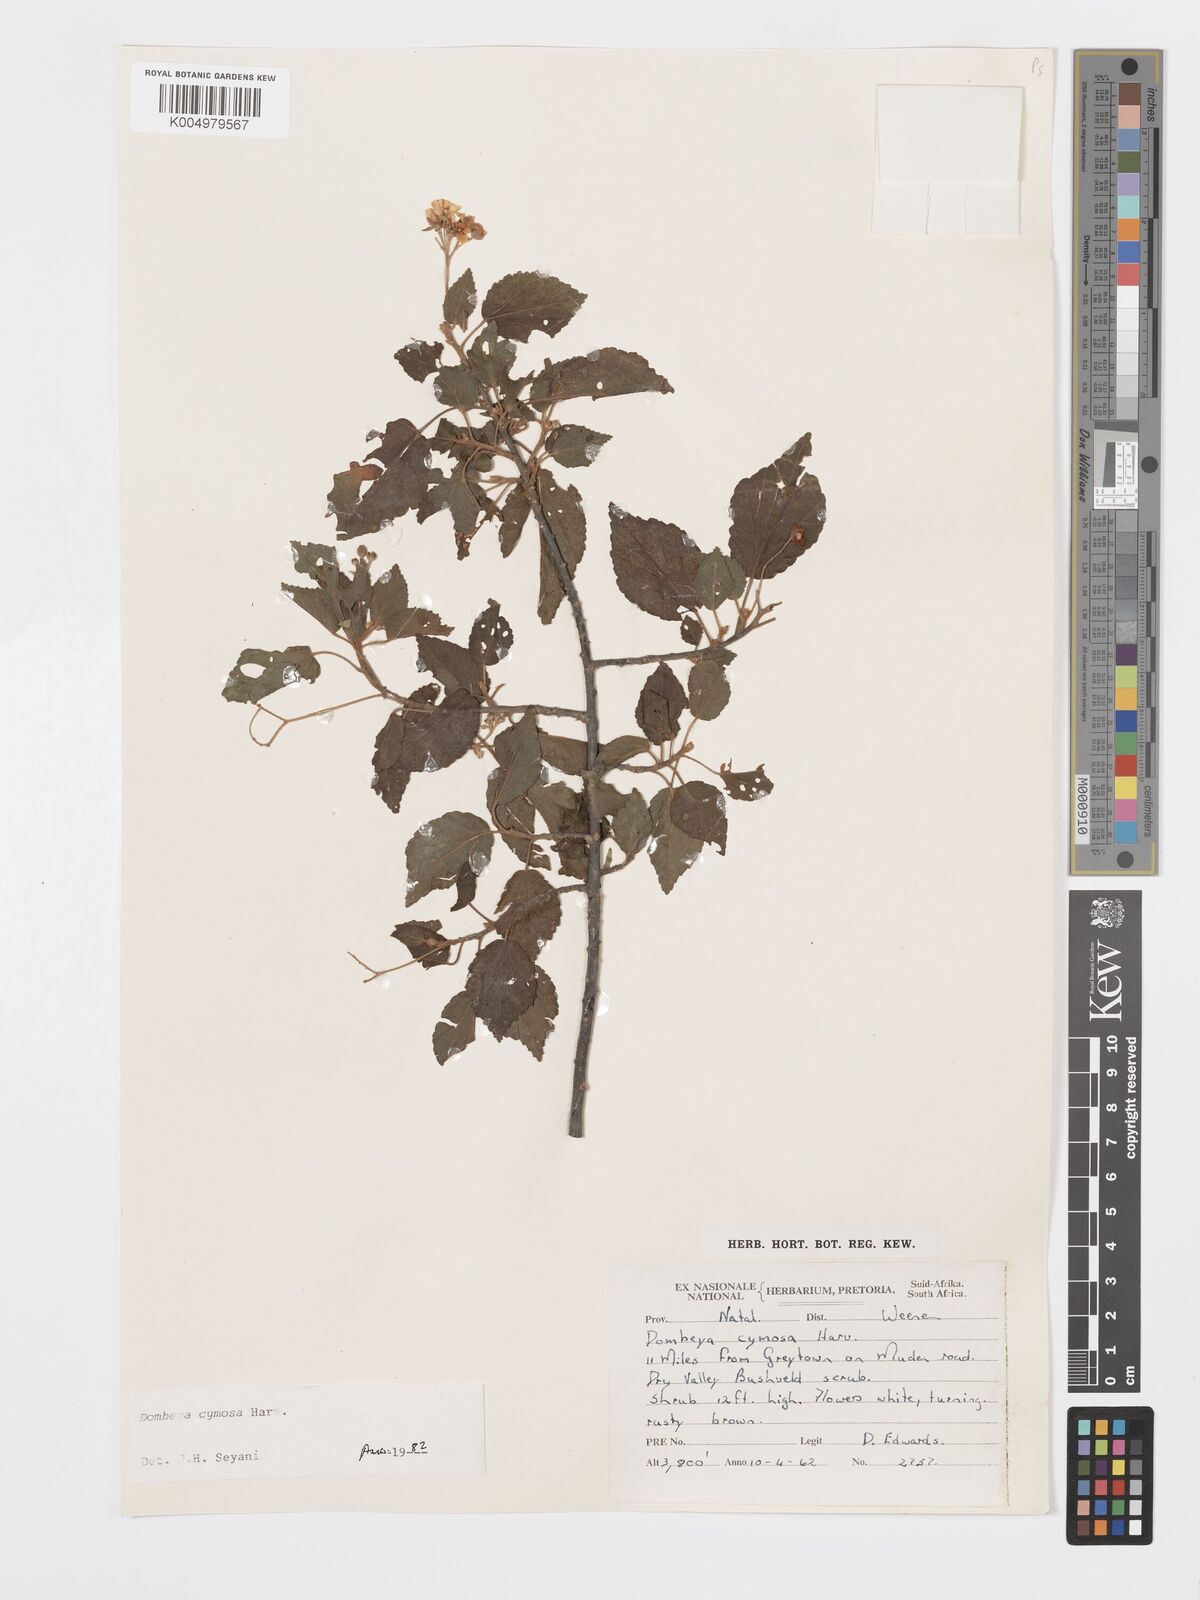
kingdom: Plantae
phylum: Tracheophyta
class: Magnoliopsida
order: Malvales
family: Malvaceae
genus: Dombeya
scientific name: Dombeya cymosa
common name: Hairless dombeya
